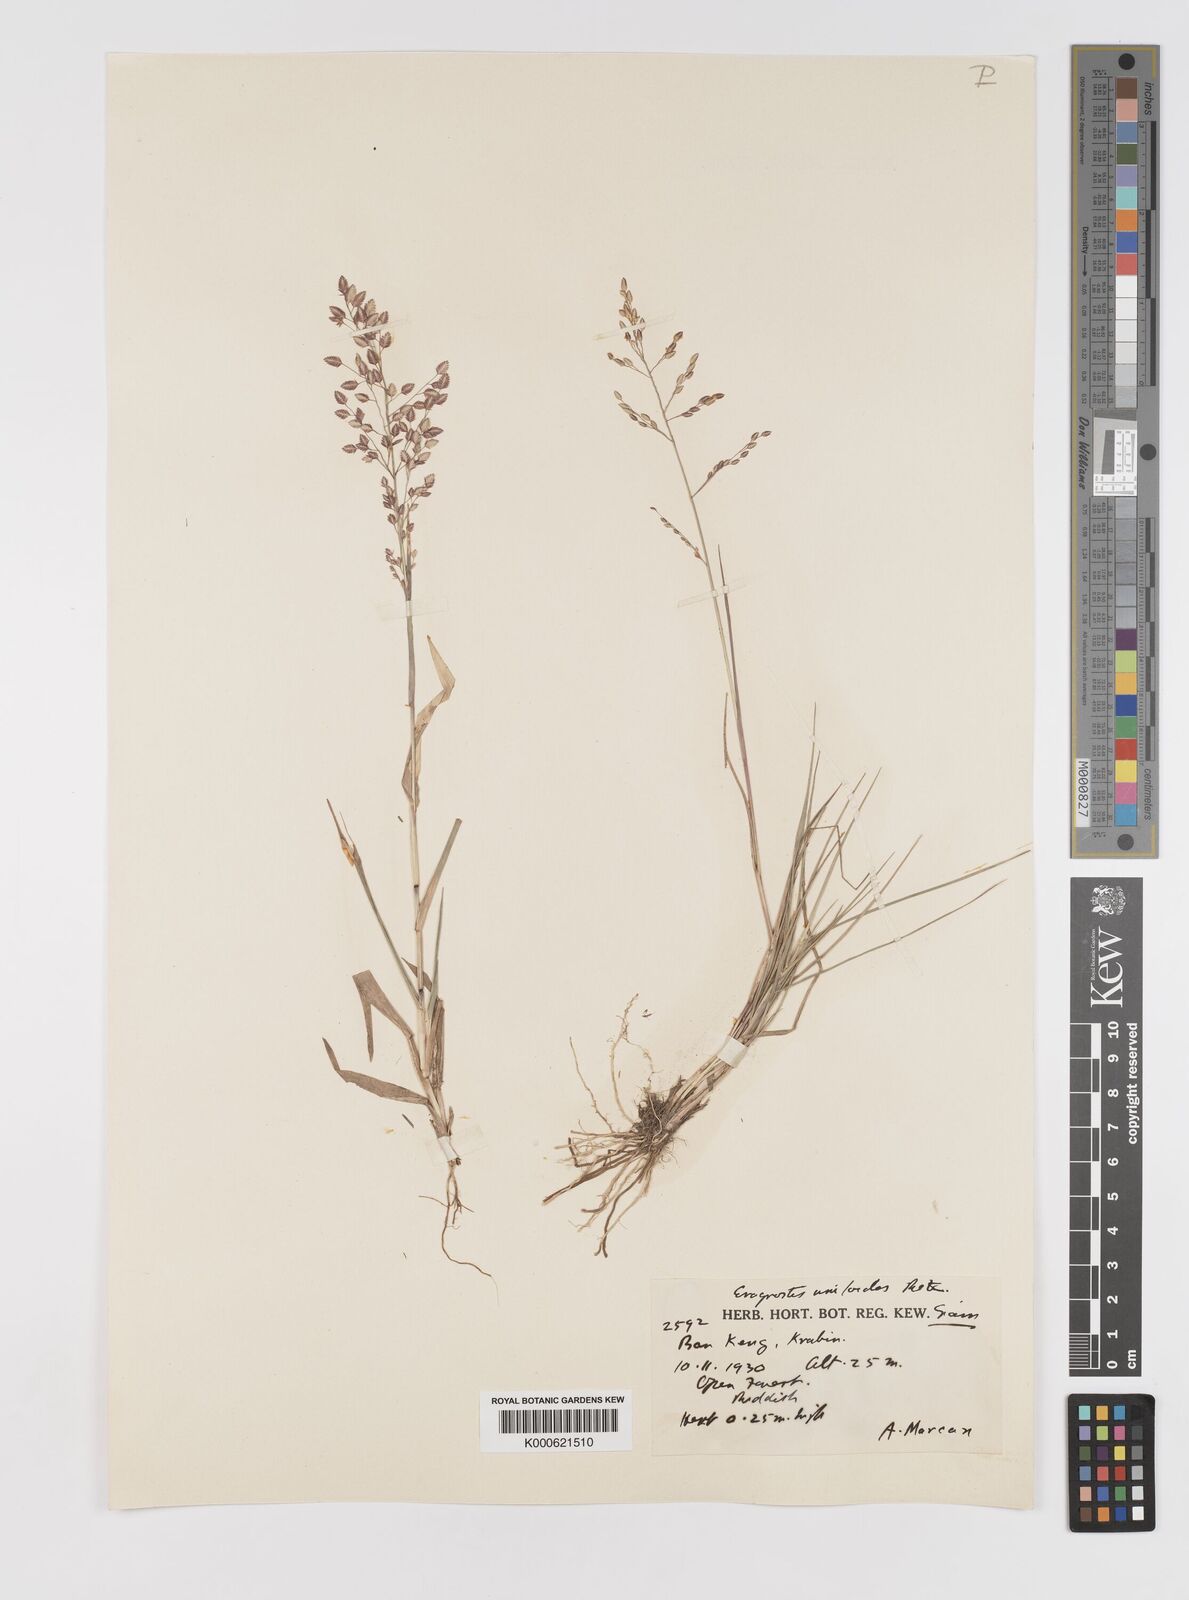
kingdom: Plantae
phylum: Tracheophyta
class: Liliopsida
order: Poales
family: Poaceae
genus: Eragrostis
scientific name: Eragrostis unioloides
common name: Chinese lovegrass
